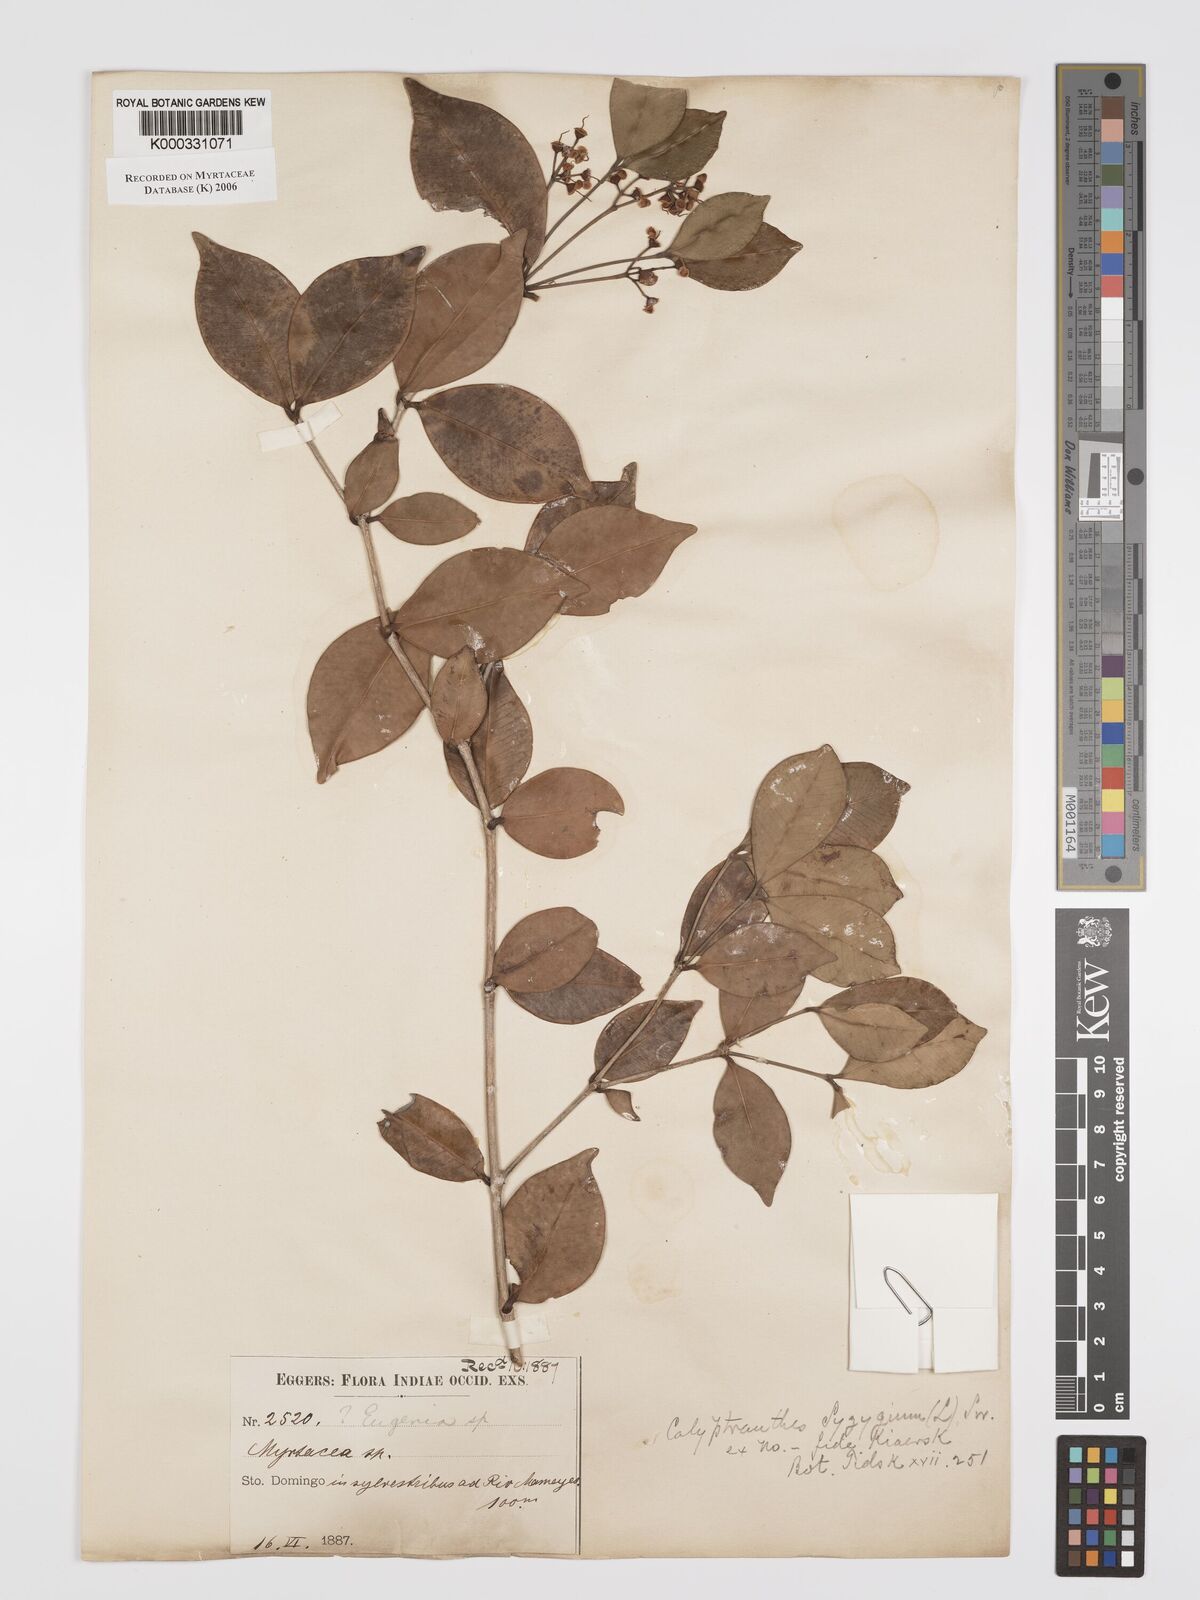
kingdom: Plantae
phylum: Tracheophyta
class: Magnoliopsida
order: Myrtales
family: Myrtaceae
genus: Myrcia
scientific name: Myrcia chytraculia
